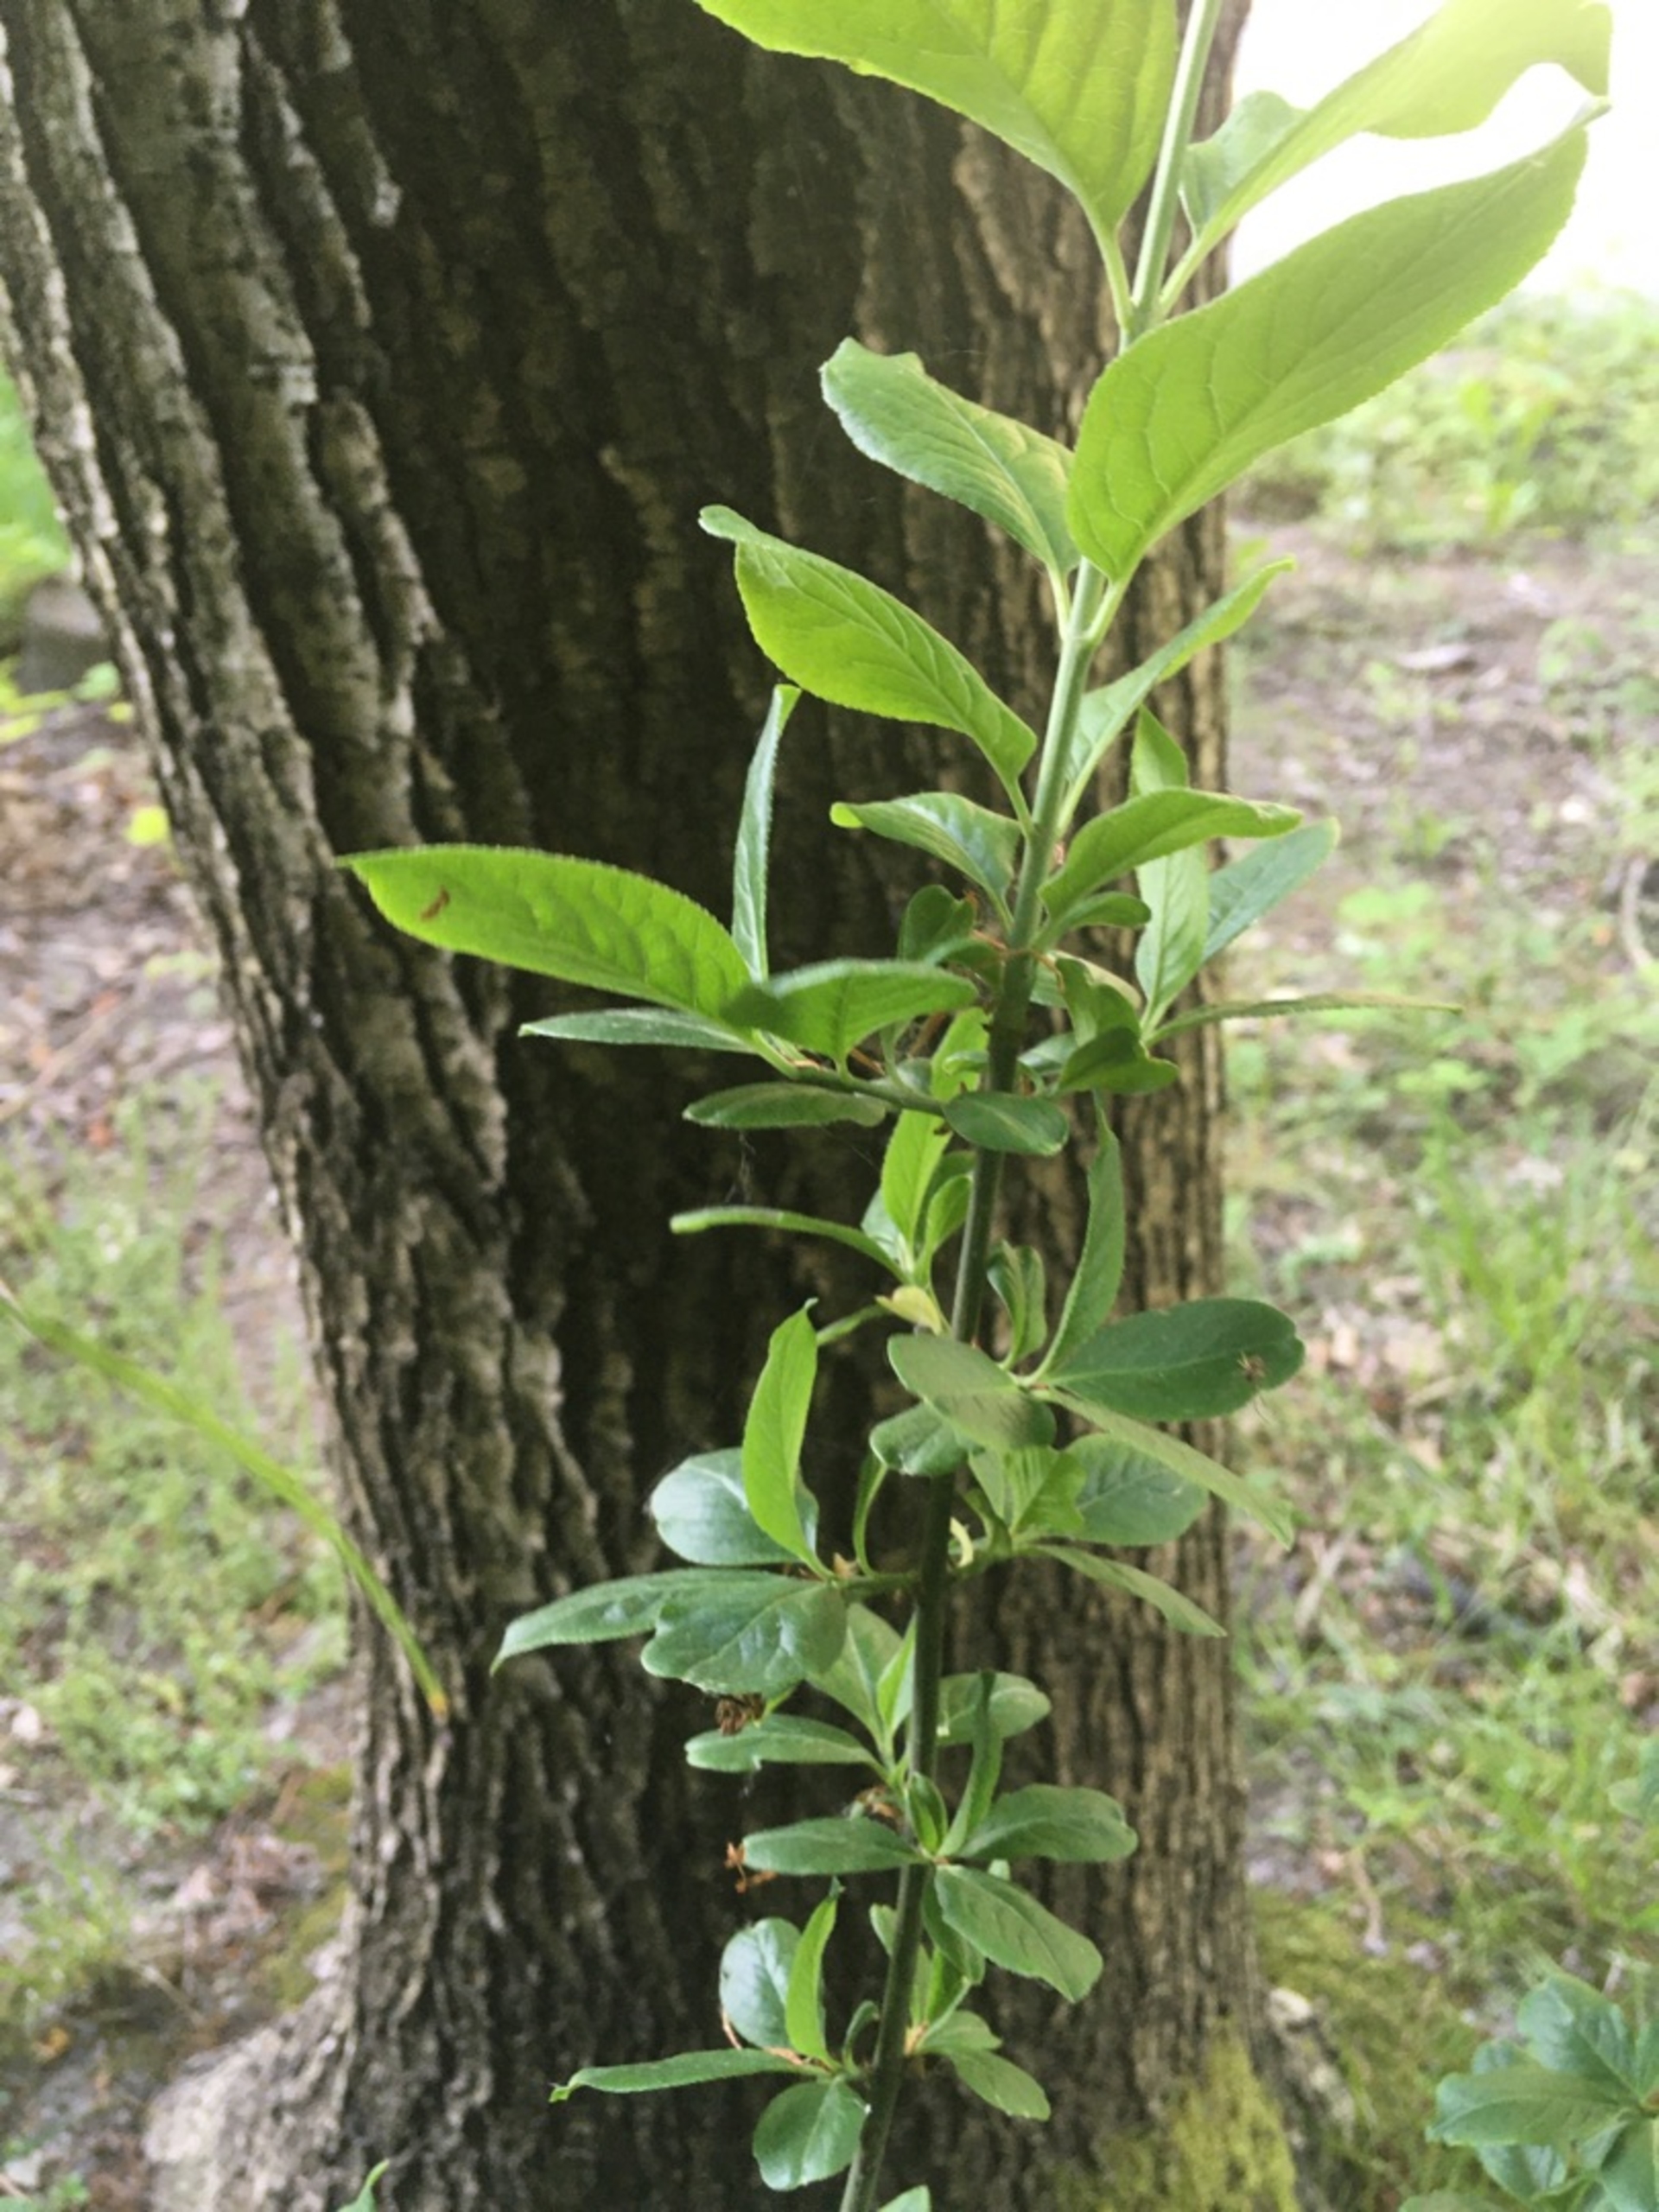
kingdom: Plantae
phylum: Tracheophyta
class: Magnoliopsida
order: Celastrales
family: Celastraceae
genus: Euonymus
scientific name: Euonymus europaeus
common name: Benved
